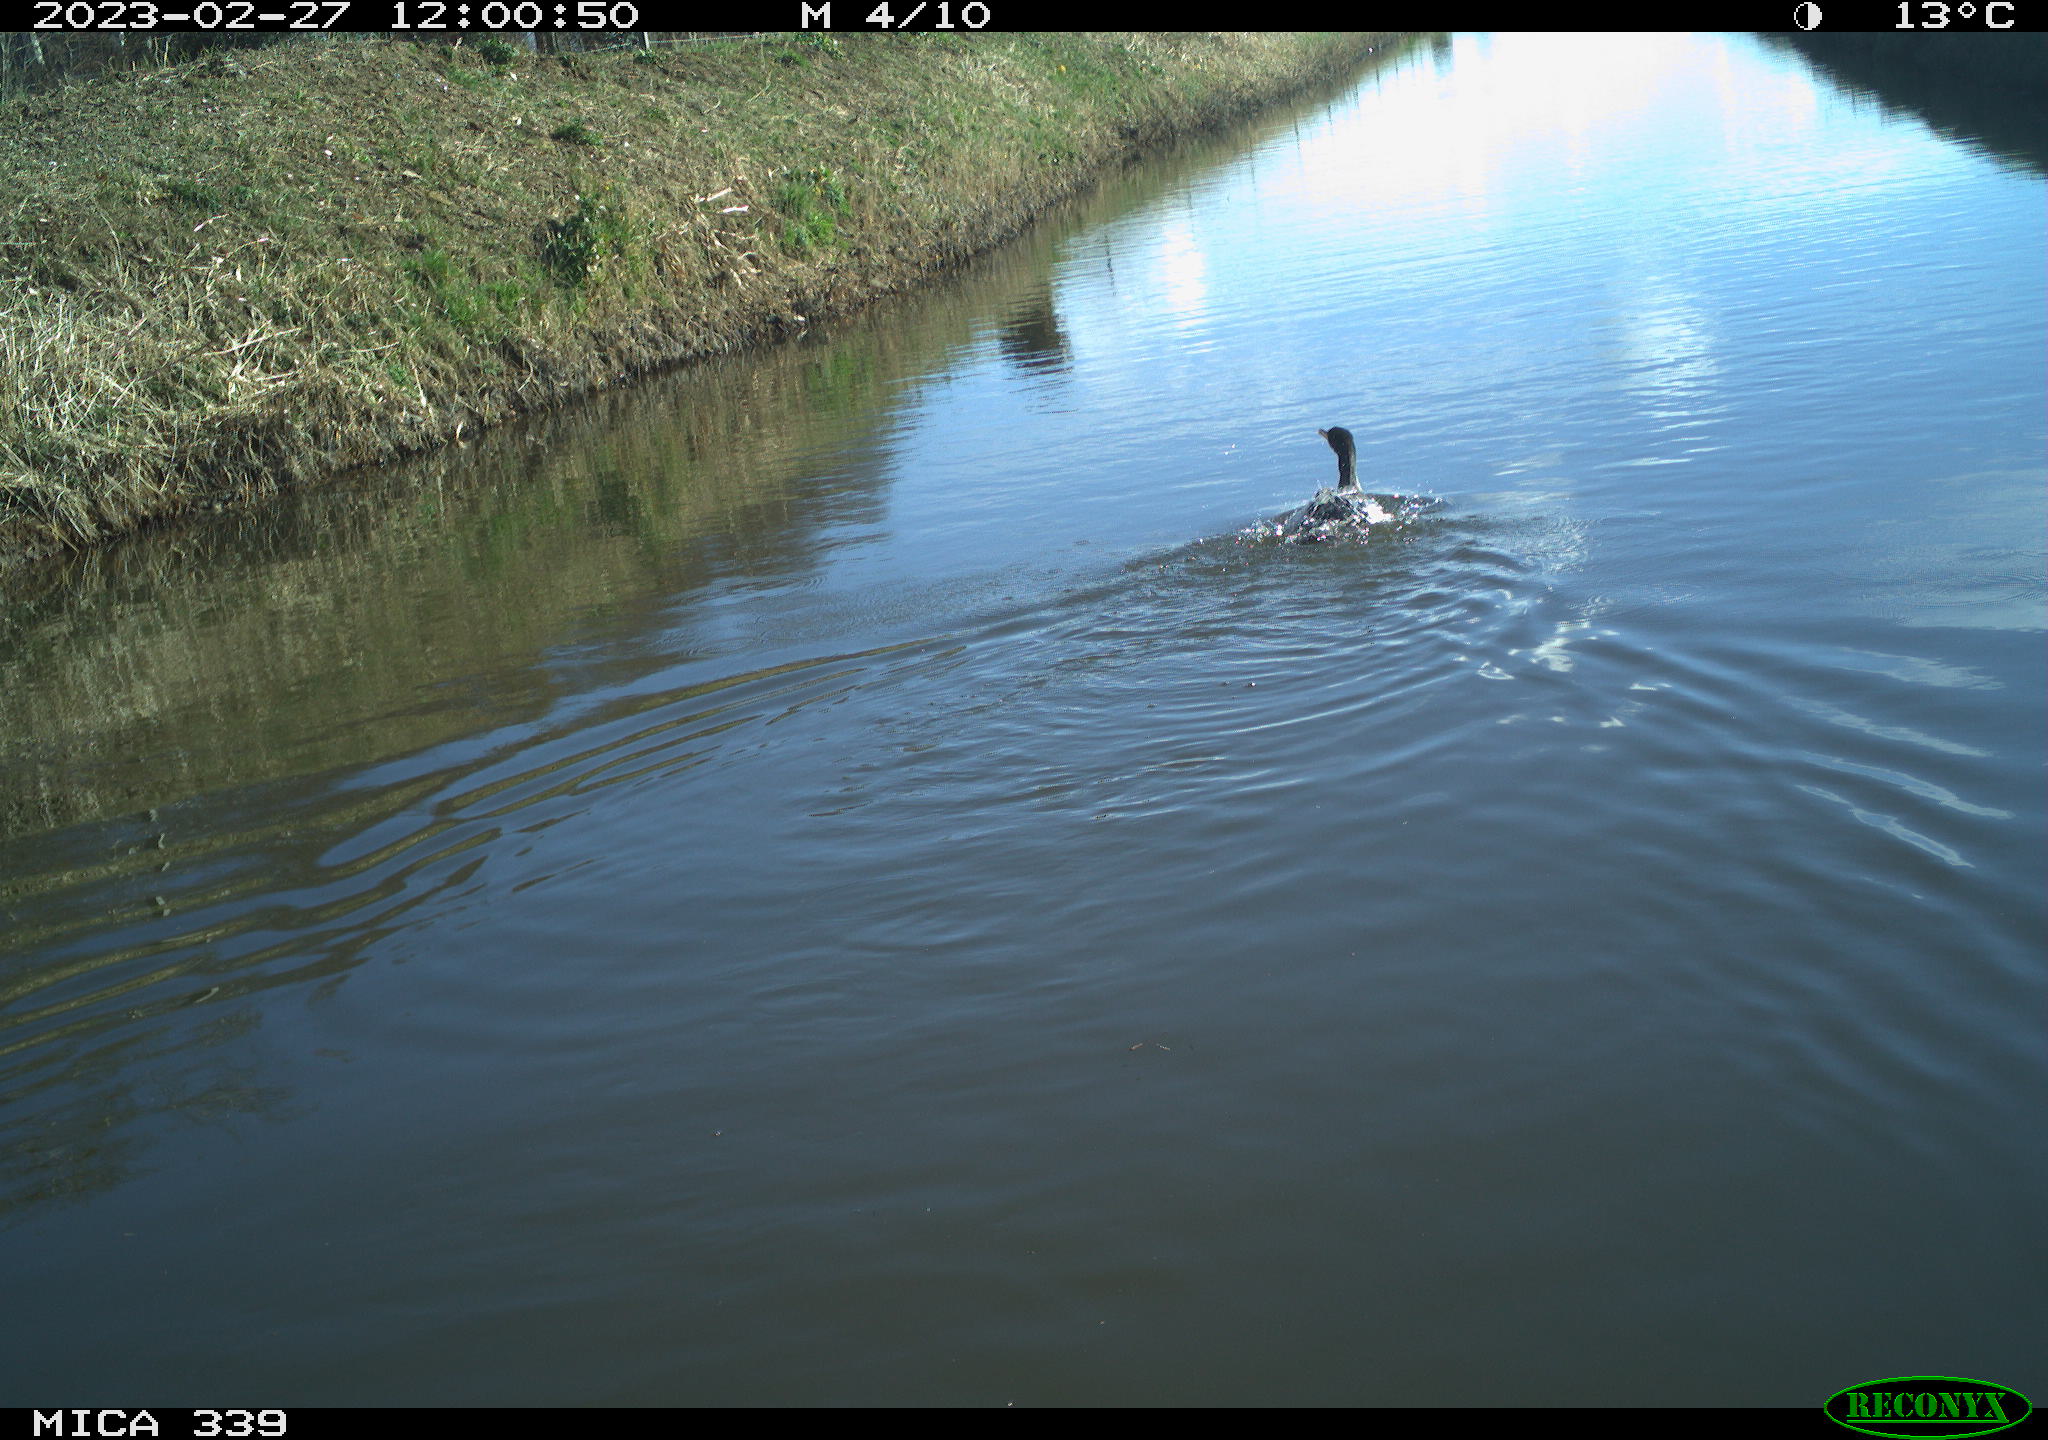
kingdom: Animalia
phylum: Chordata
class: Aves
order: Suliformes
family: Phalacrocoracidae
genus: Phalacrocorax
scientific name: Phalacrocorax carbo
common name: Great cormorant
